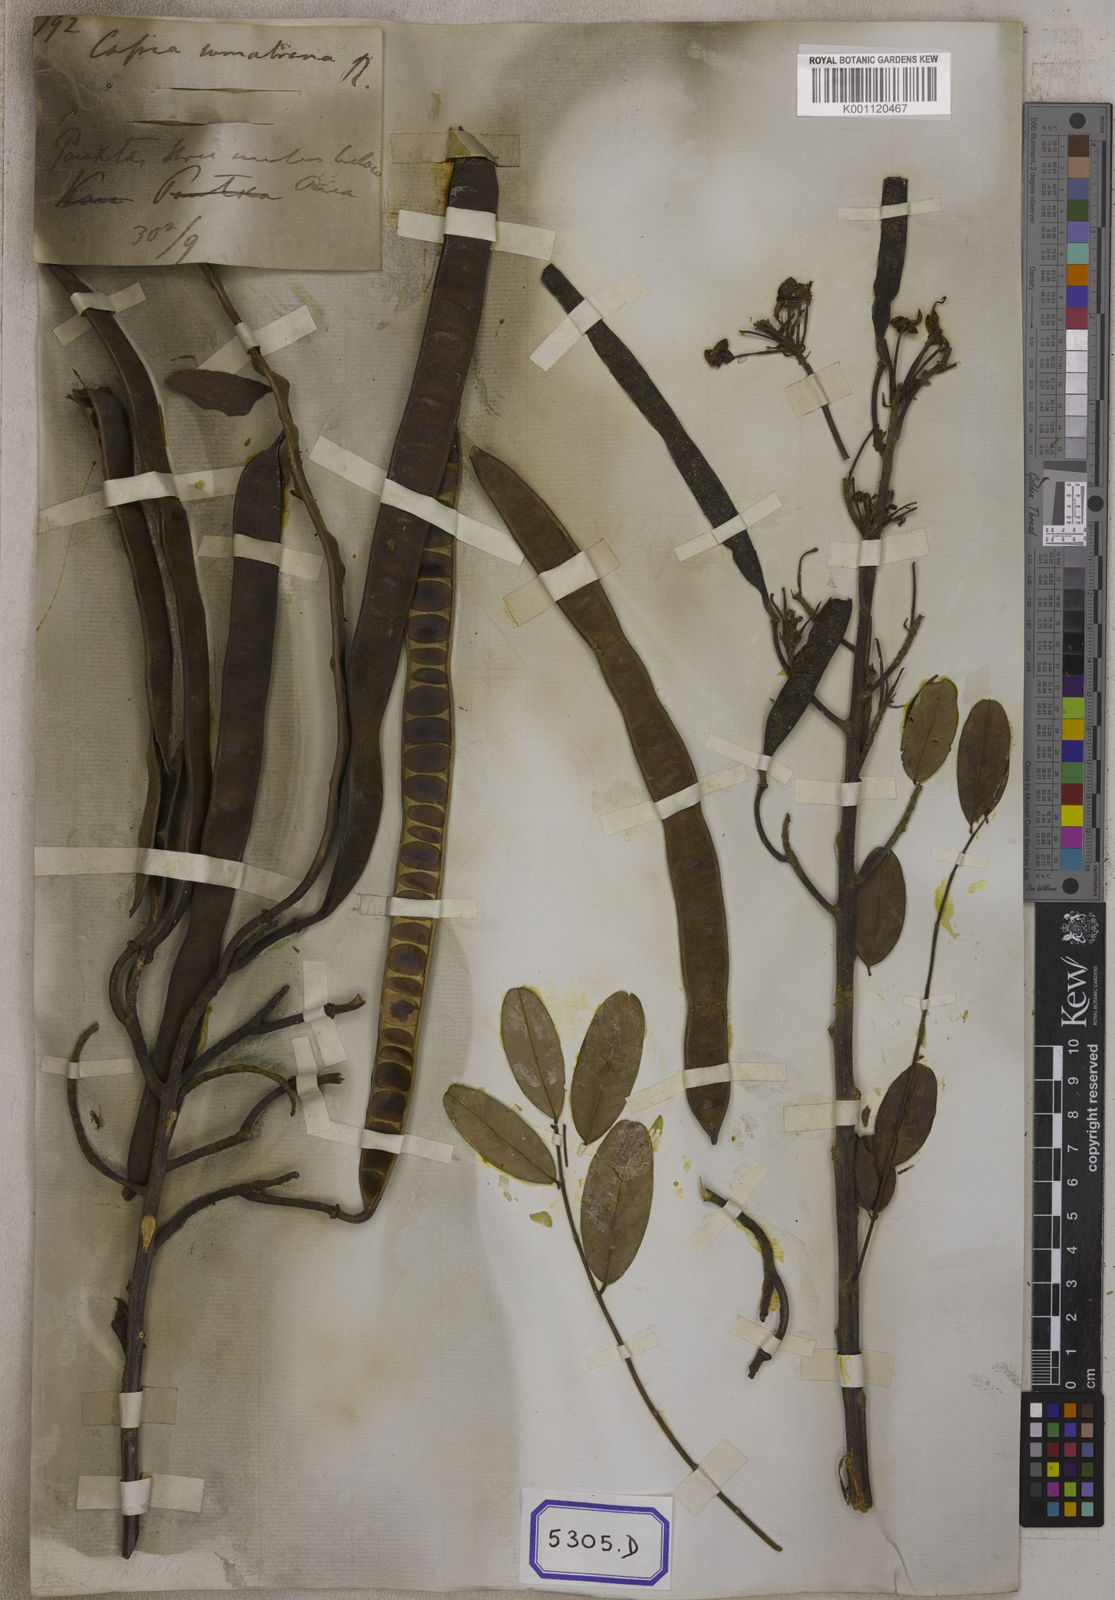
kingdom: Plantae
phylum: Tracheophyta
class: Magnoliopsida
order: Fabales
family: Fabaceae
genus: Senna
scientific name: Senna auriculata
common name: Tanner's cassia
